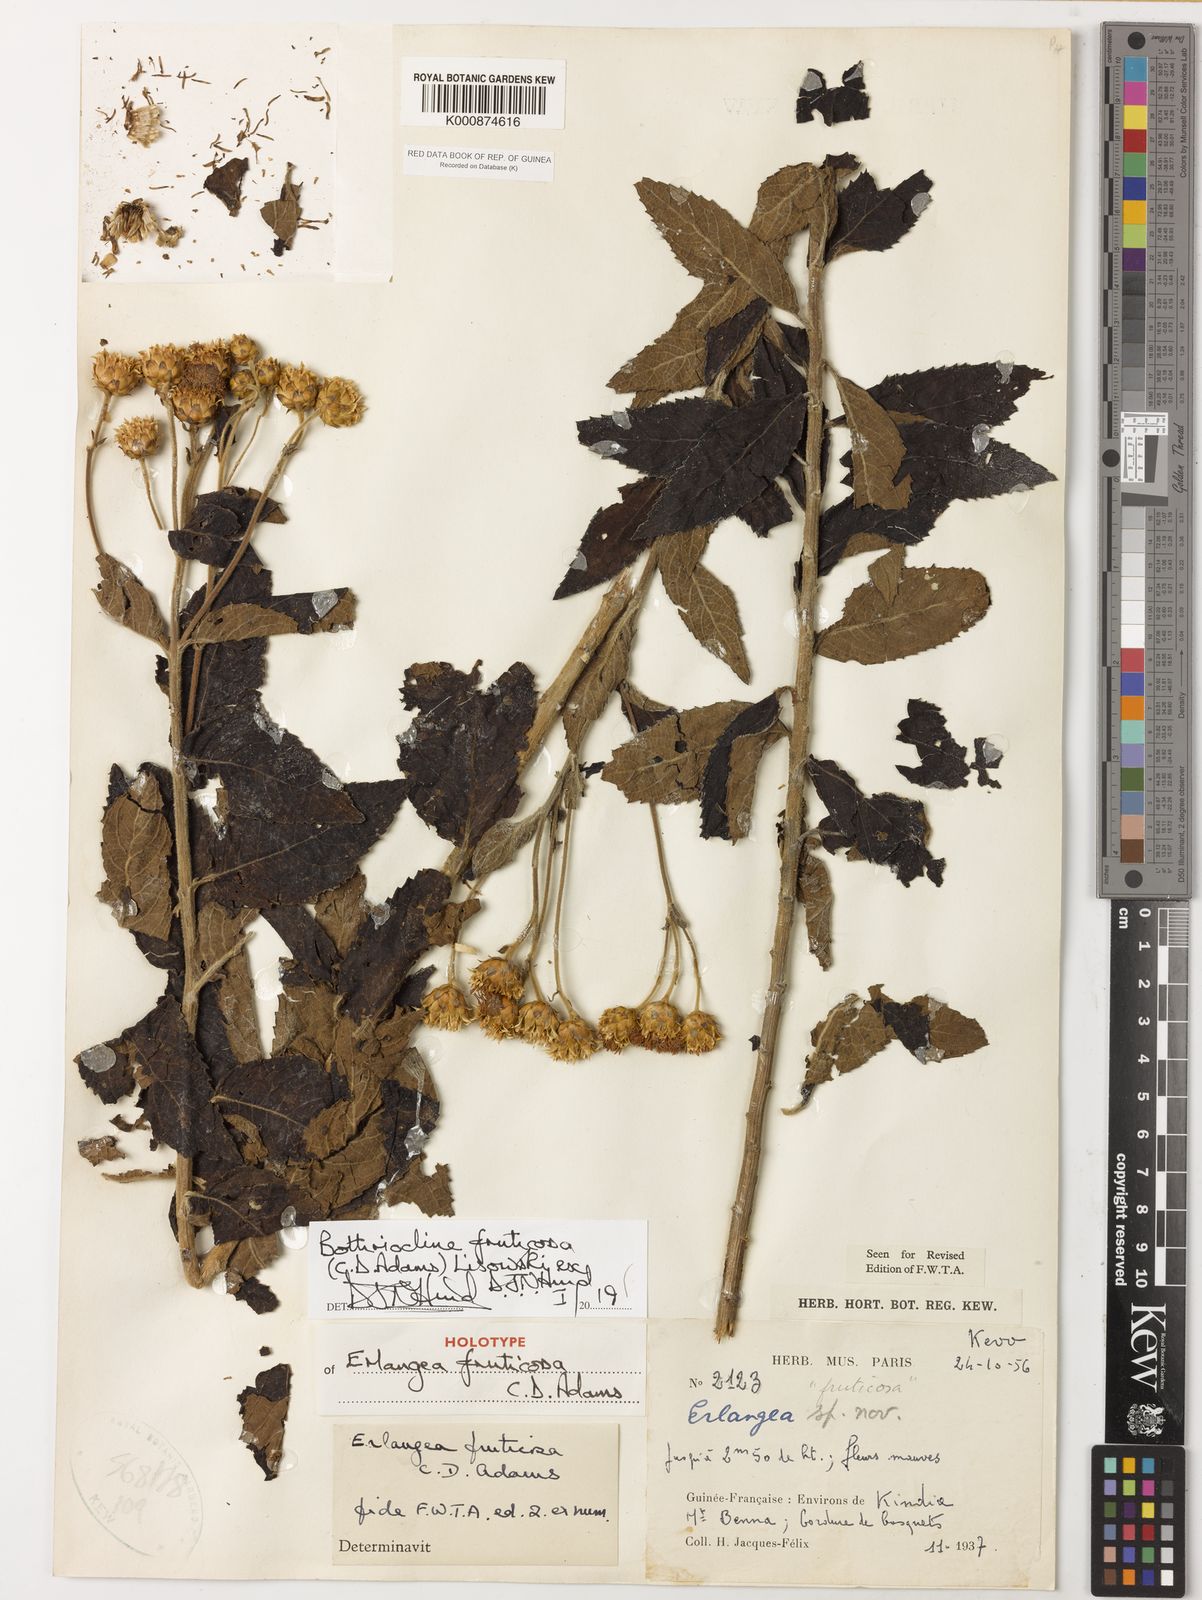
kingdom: Plantae
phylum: Tracheophyta
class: Magnoliopsida
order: Asterales
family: Asteraceae
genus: Bothriocline
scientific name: Bothriocline
